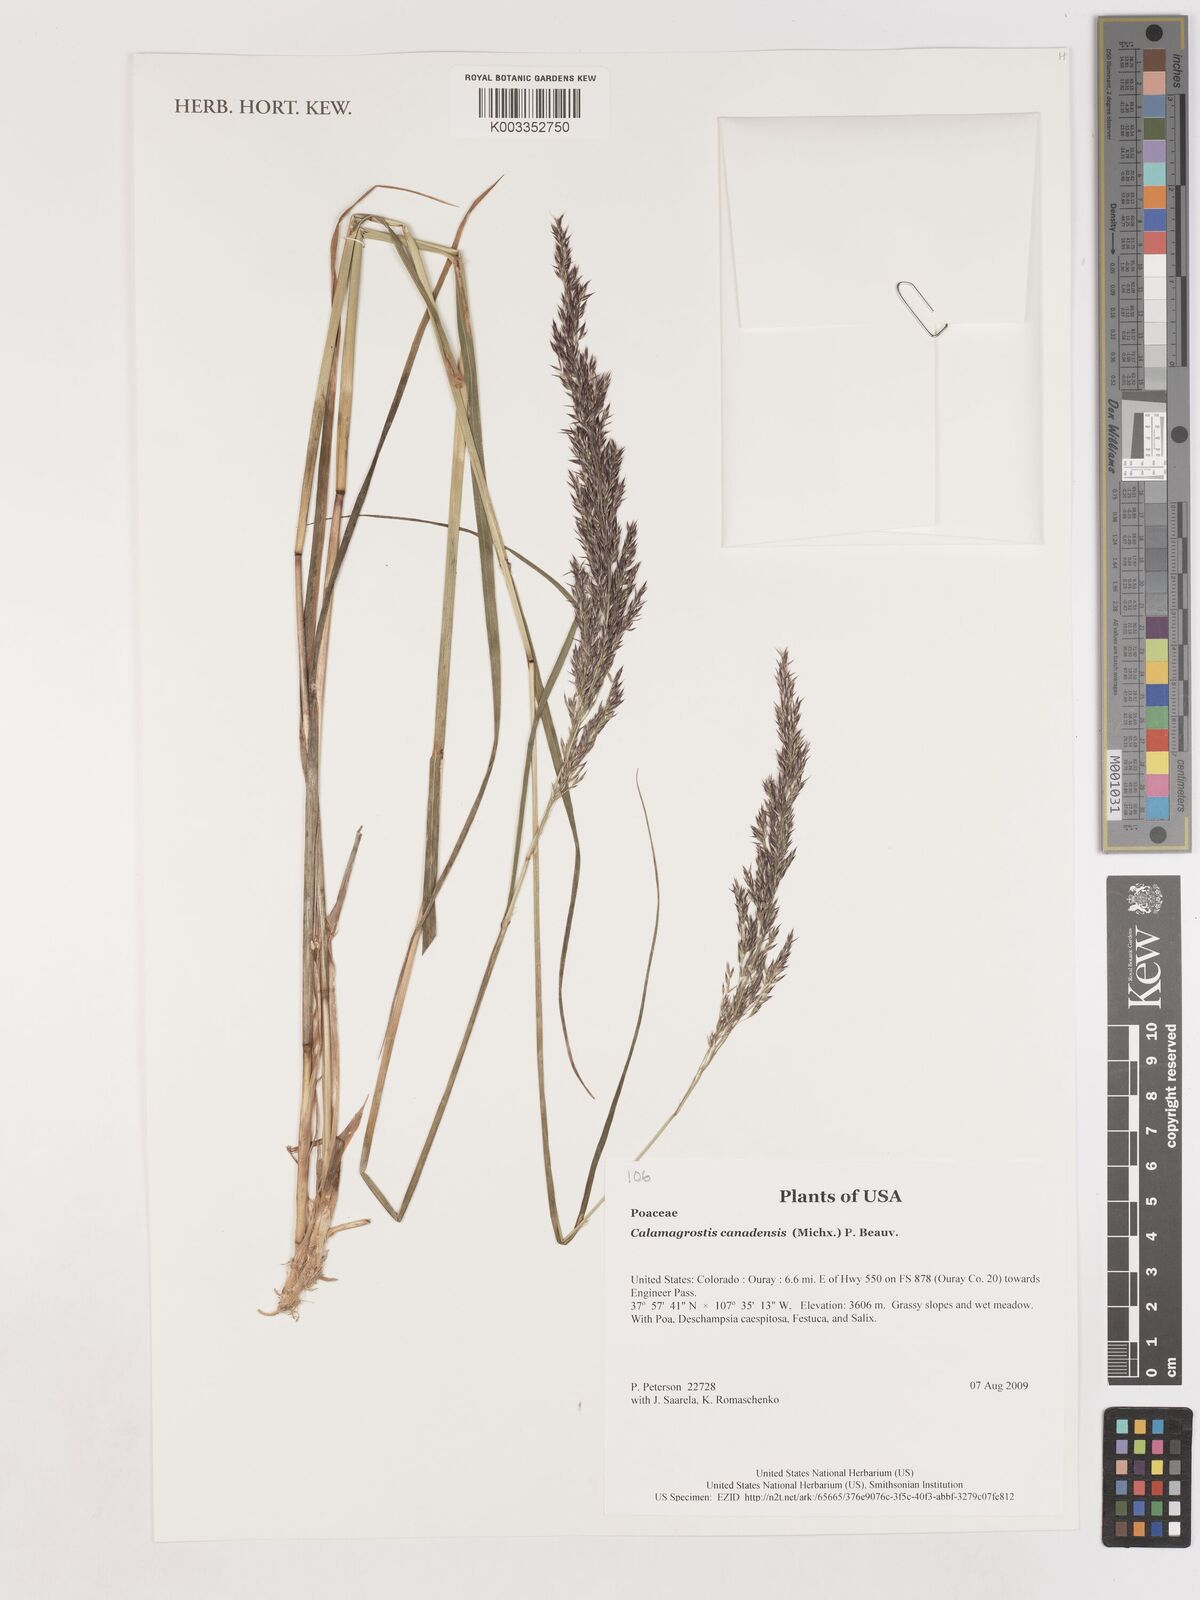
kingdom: Plantae
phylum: Tracheophyta
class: Liliopsida
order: Poales
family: Poaceae
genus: Calamagrostis
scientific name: Calamagrostis canadensis
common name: Canada bluejoint
